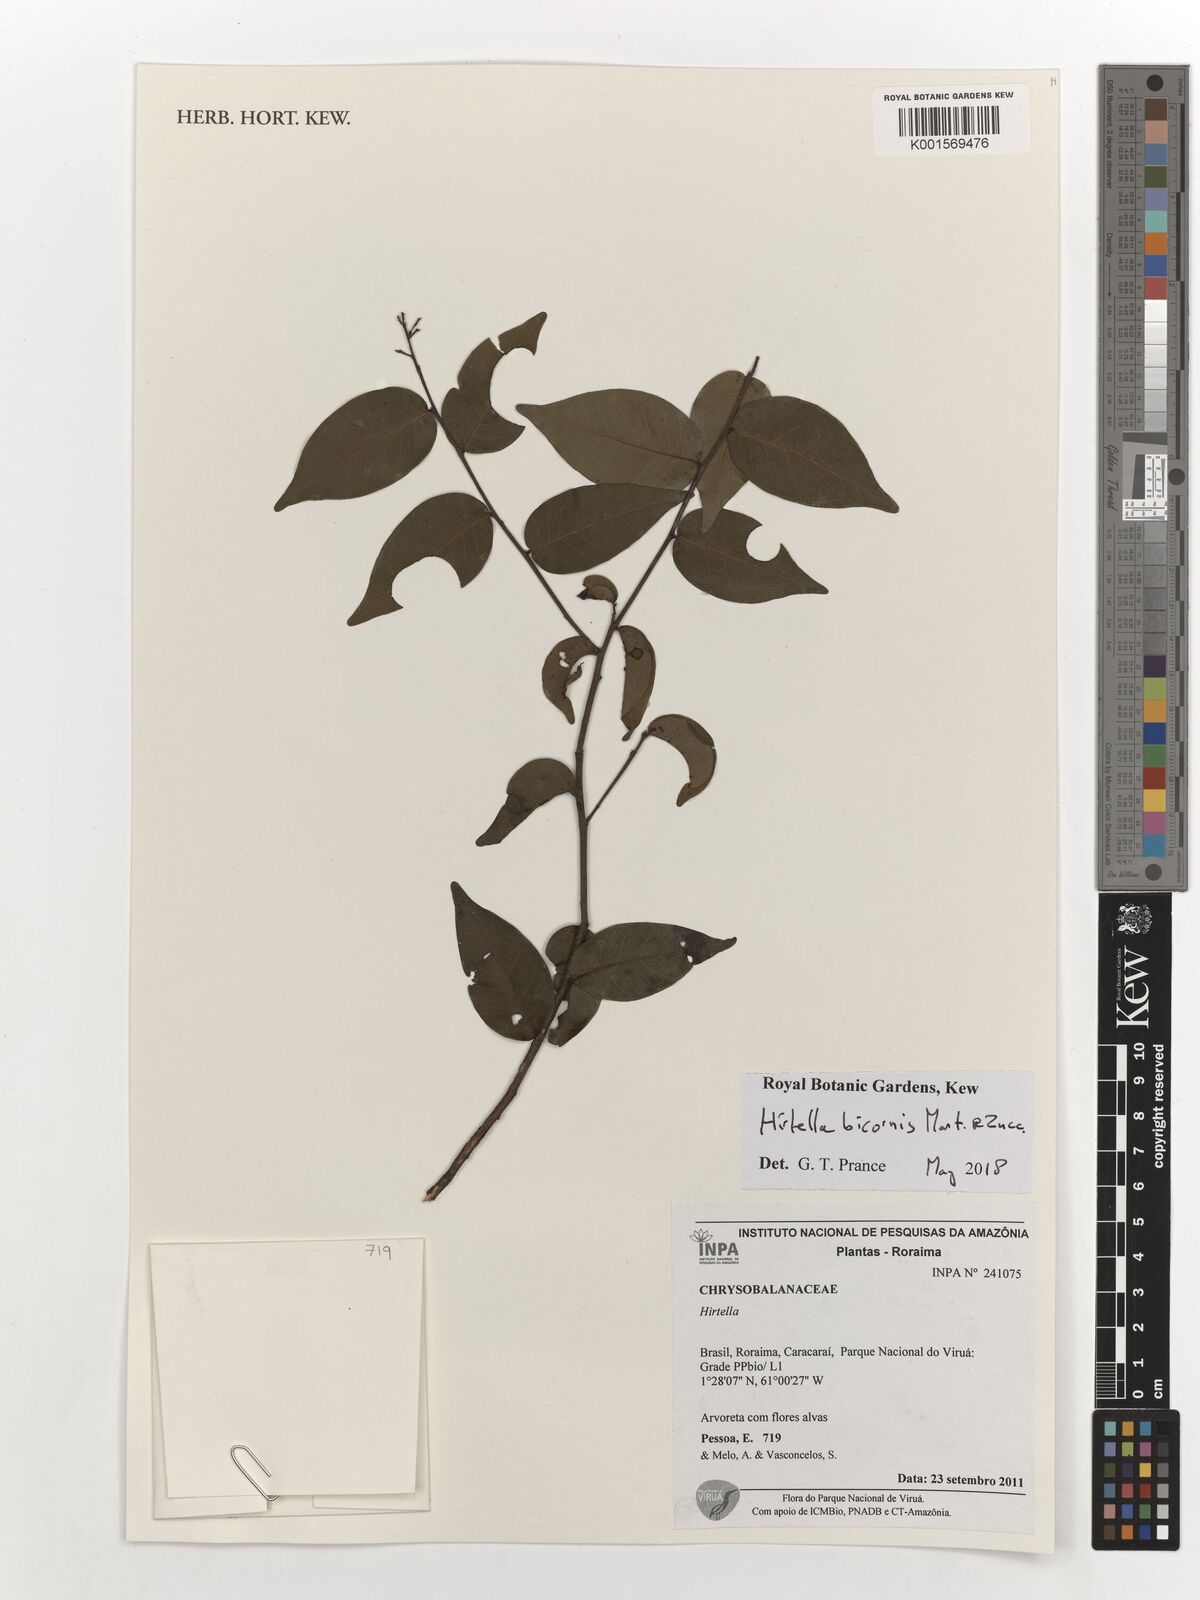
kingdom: Plantae
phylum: Tracheophyta
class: Magnoliopsida
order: Malpighiales
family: Chrysobalanaceae
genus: Hirtella
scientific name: Hirtella bicornis
